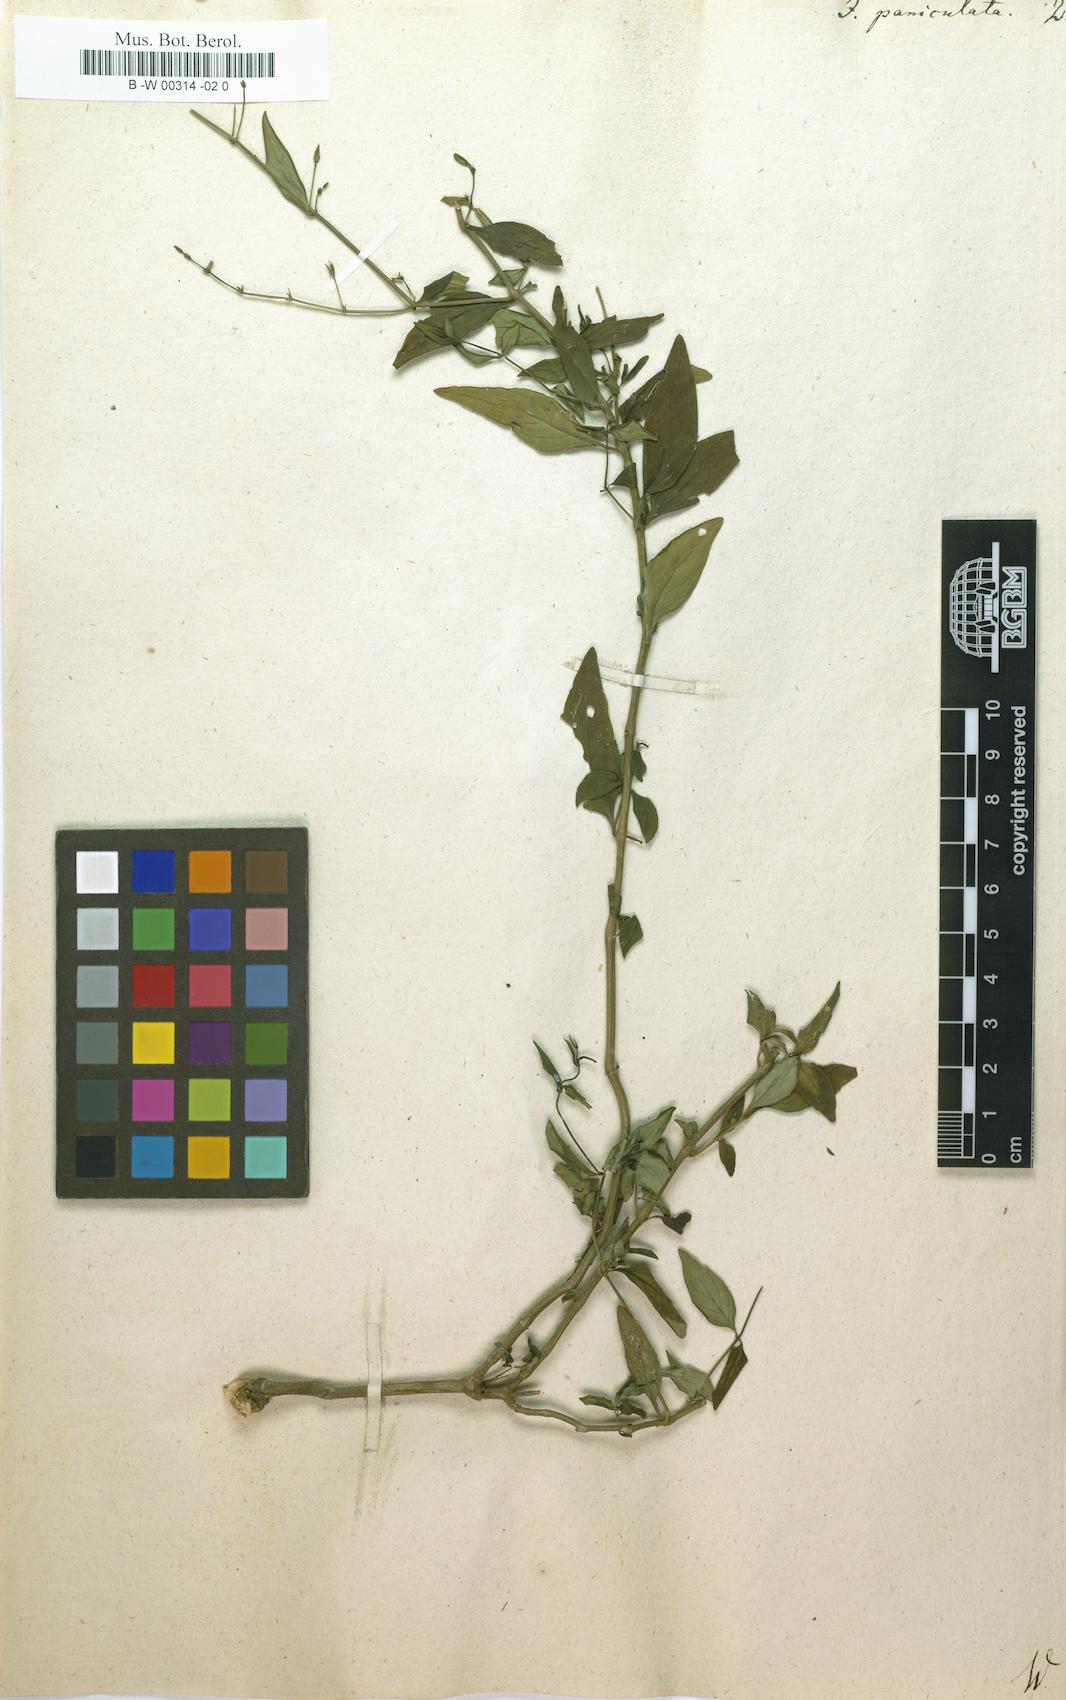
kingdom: Plantae
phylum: Tracheophyta
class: Magnoliopsida
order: Lamiales
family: Acanthaceae
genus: Justicia
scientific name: Justicia paniculata
